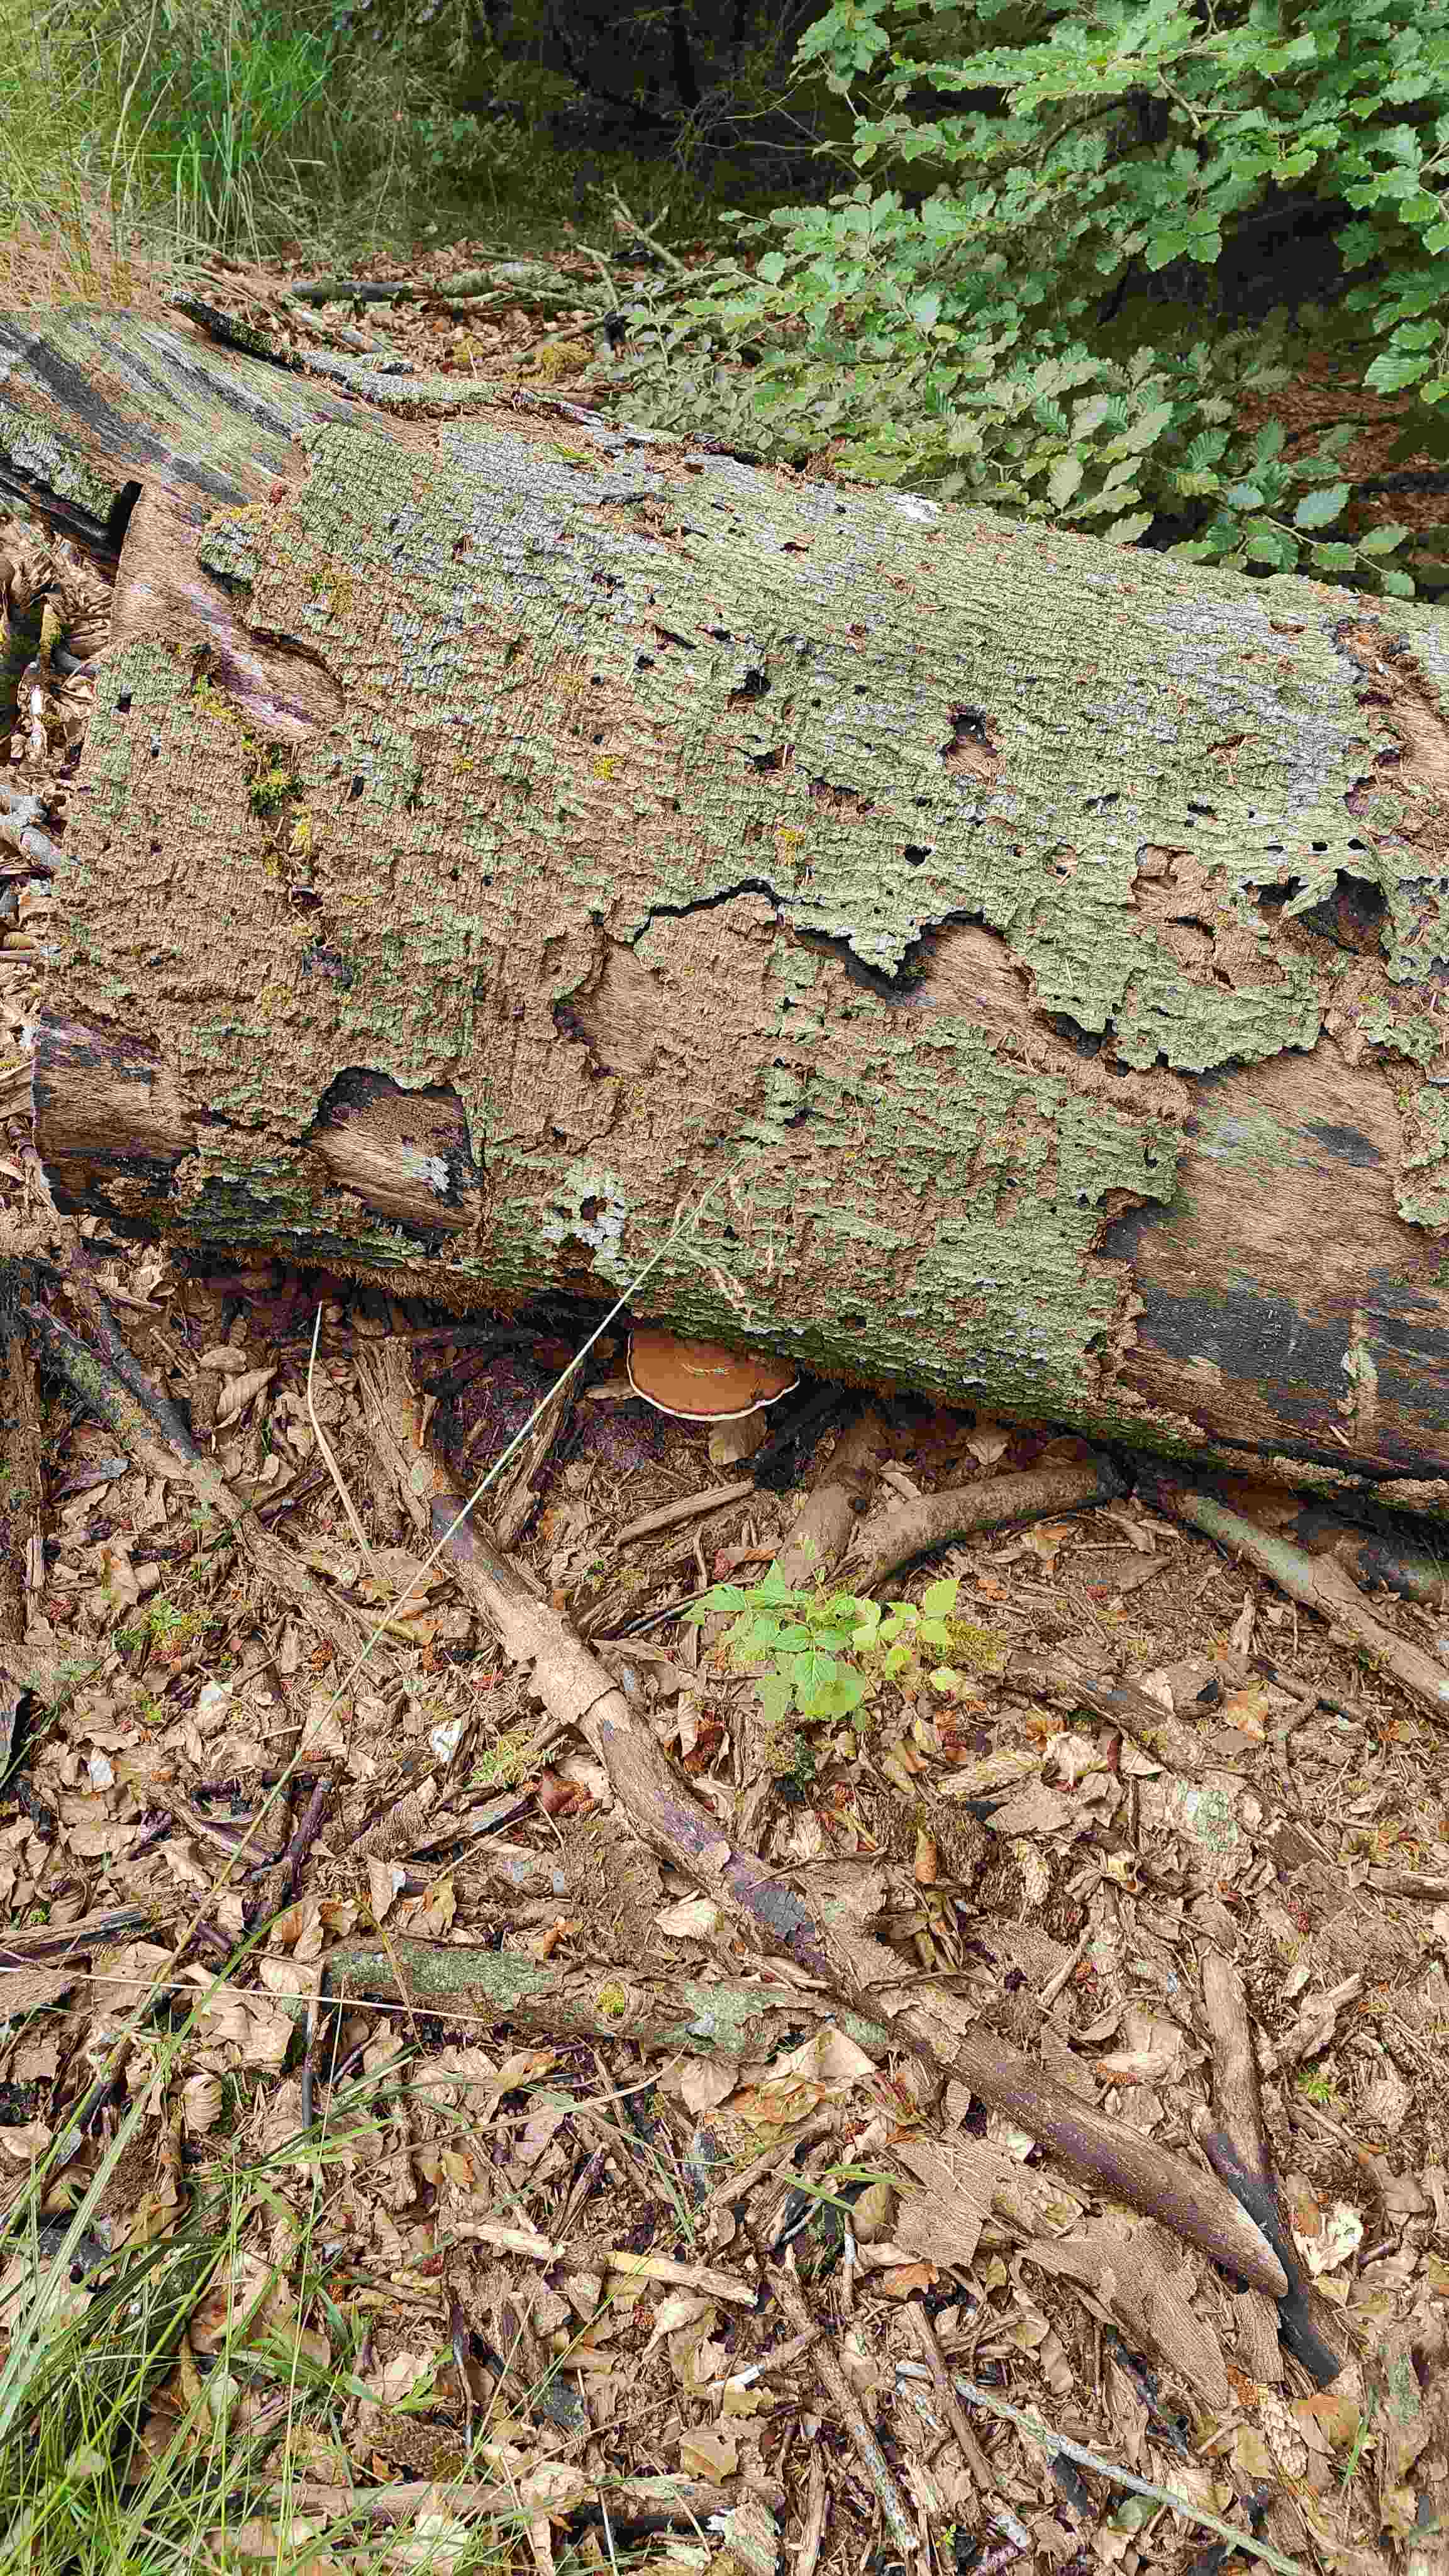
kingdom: Fungi
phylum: Basidiomycota
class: Agaricomycetes
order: Polyporales
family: Polyporaceae
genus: Ganoderma
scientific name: Ganoderma applanatum
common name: flad lakporesvamp
